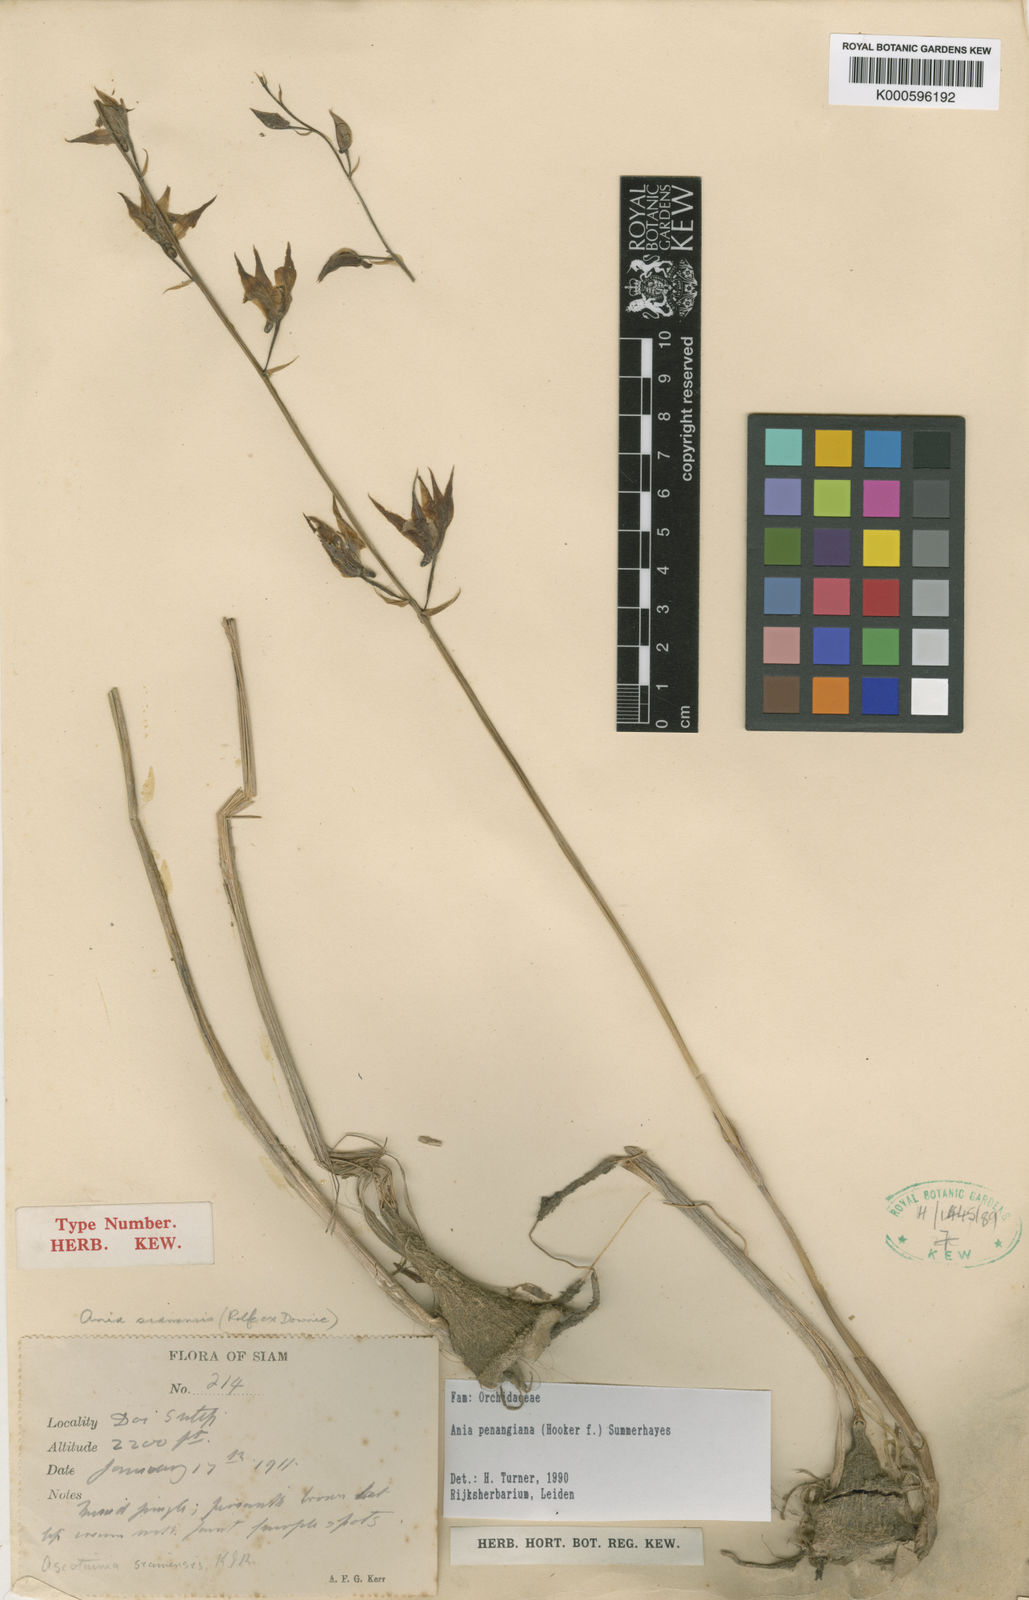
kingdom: Plantae
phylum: Tracheophyta
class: Liliopsida
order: Asparagales
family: Orchidaceae
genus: Ania
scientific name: Ania penangiana
